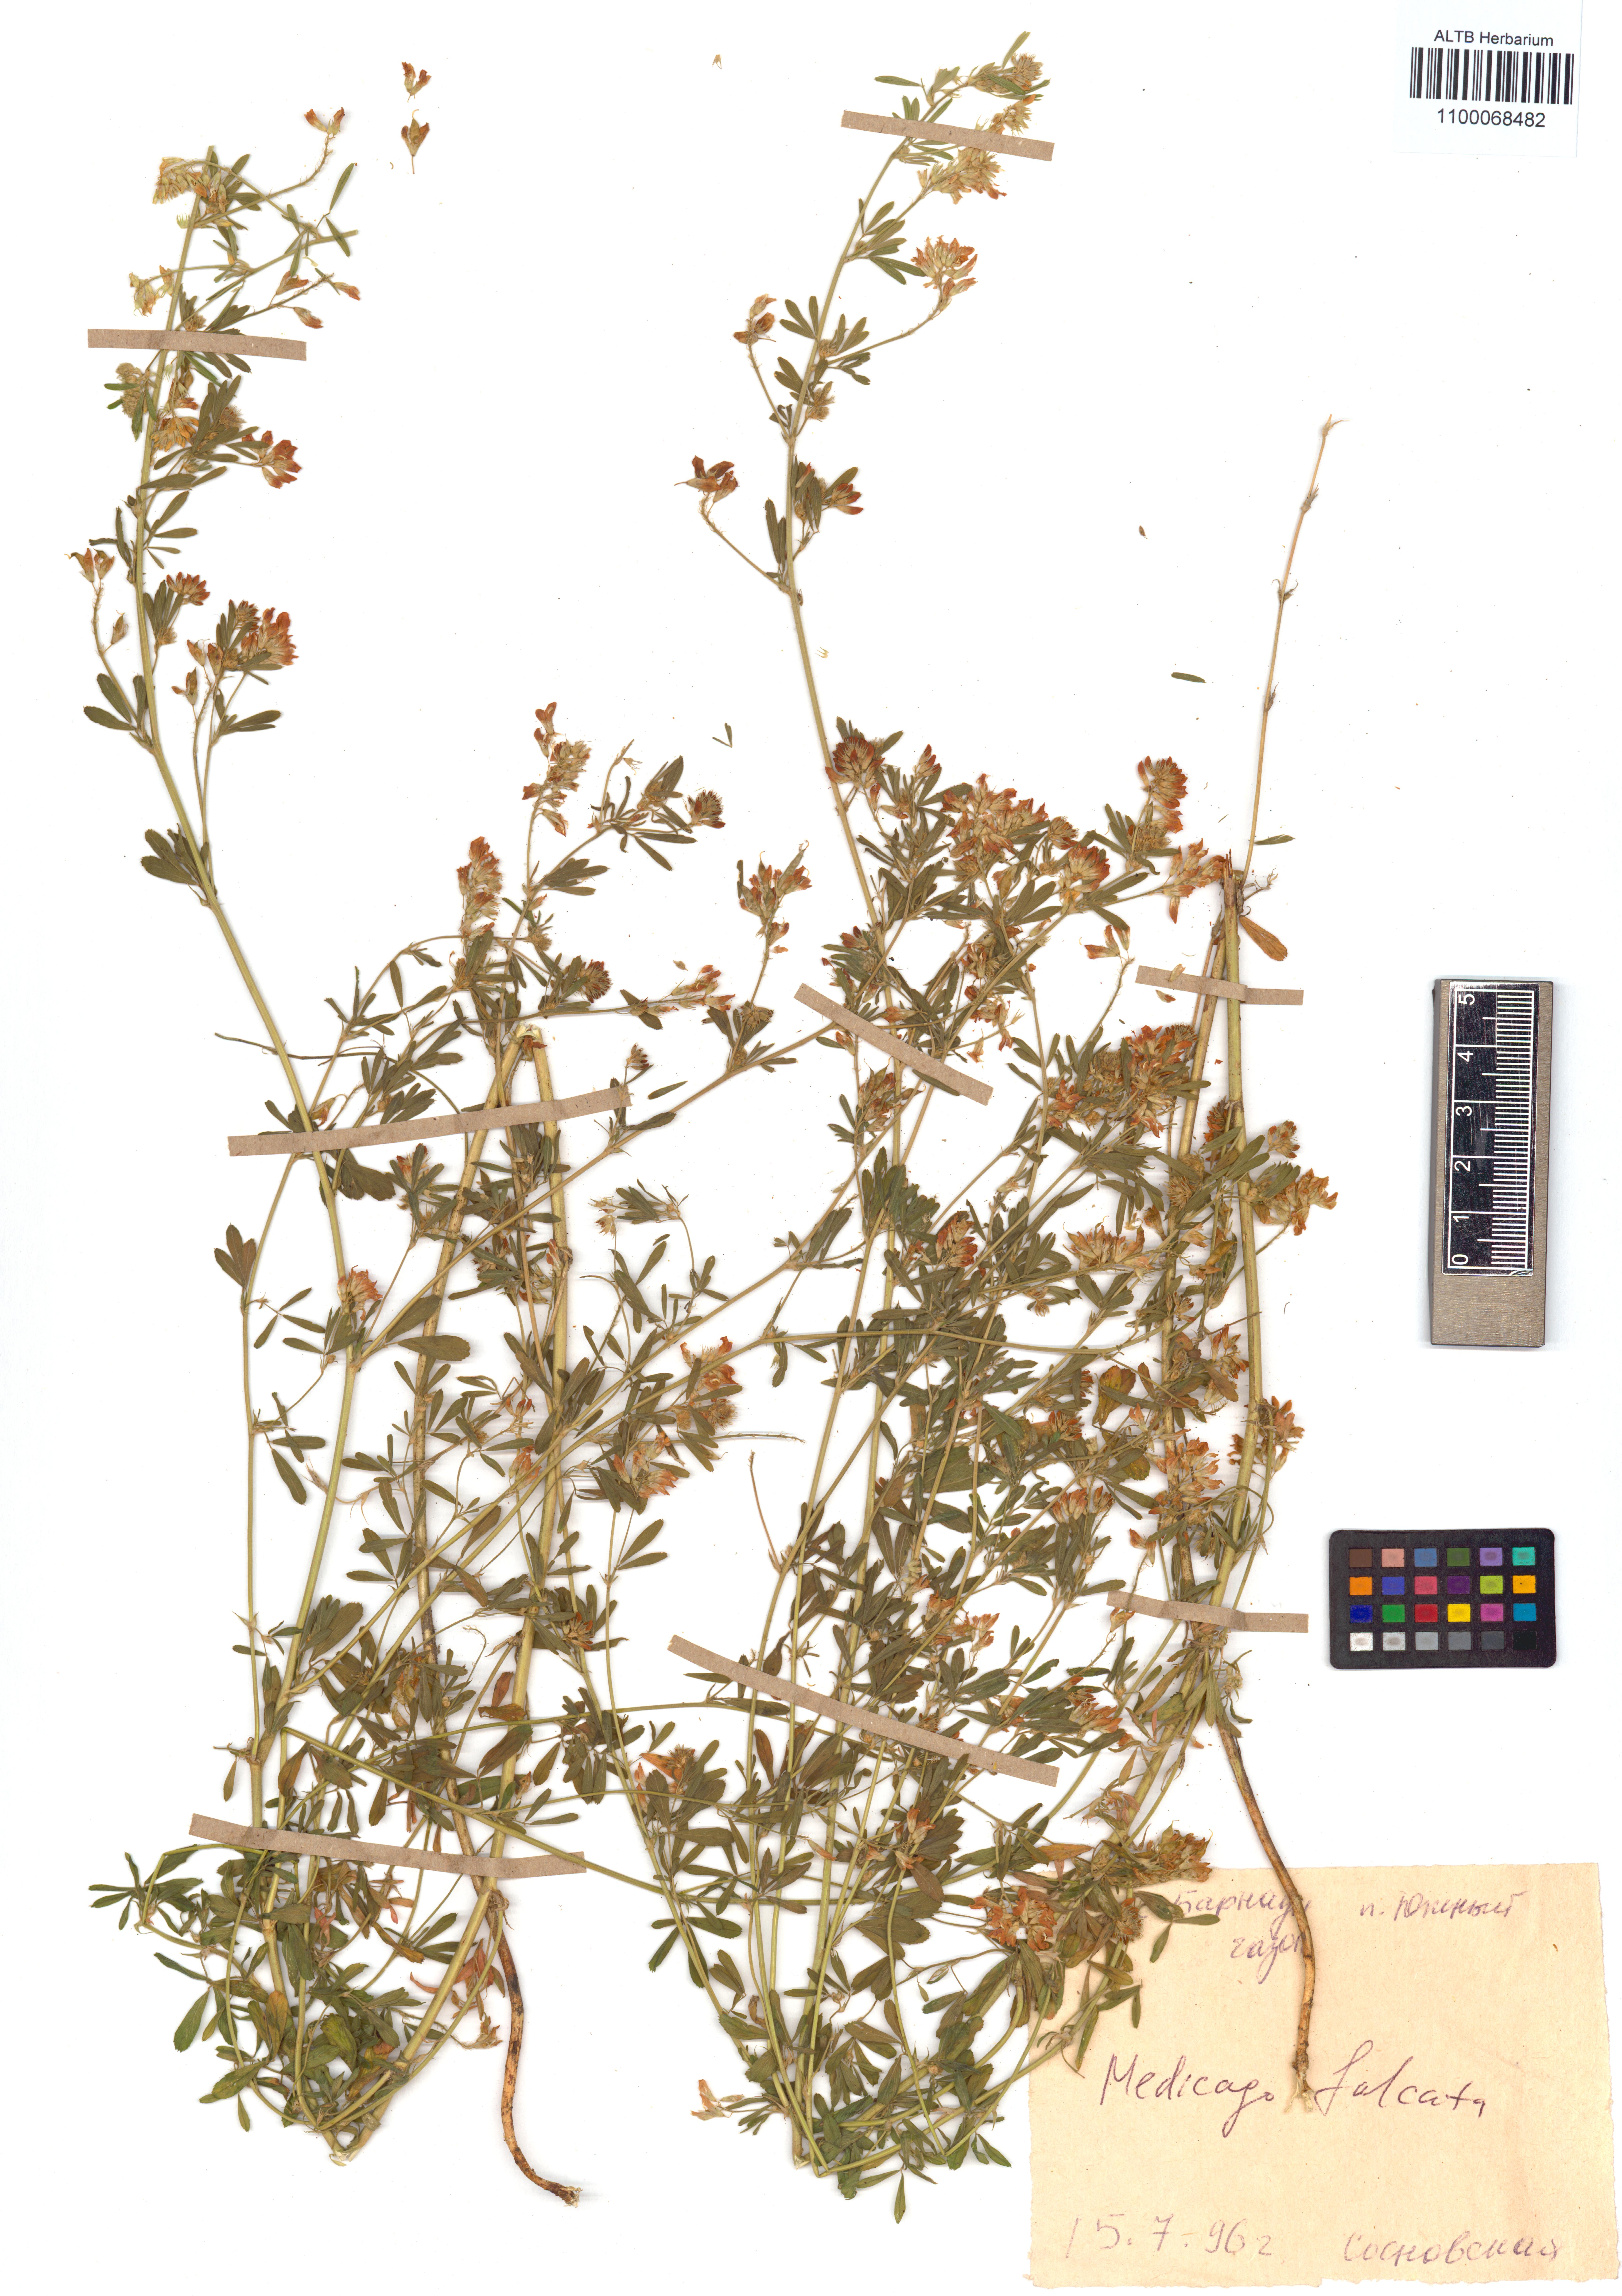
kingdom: Plantae
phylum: Tracheophyta
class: Magnoliopsida
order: Fabales
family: Fabaceae
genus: Medicago
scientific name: Medicago falcata
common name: Sickle medick
